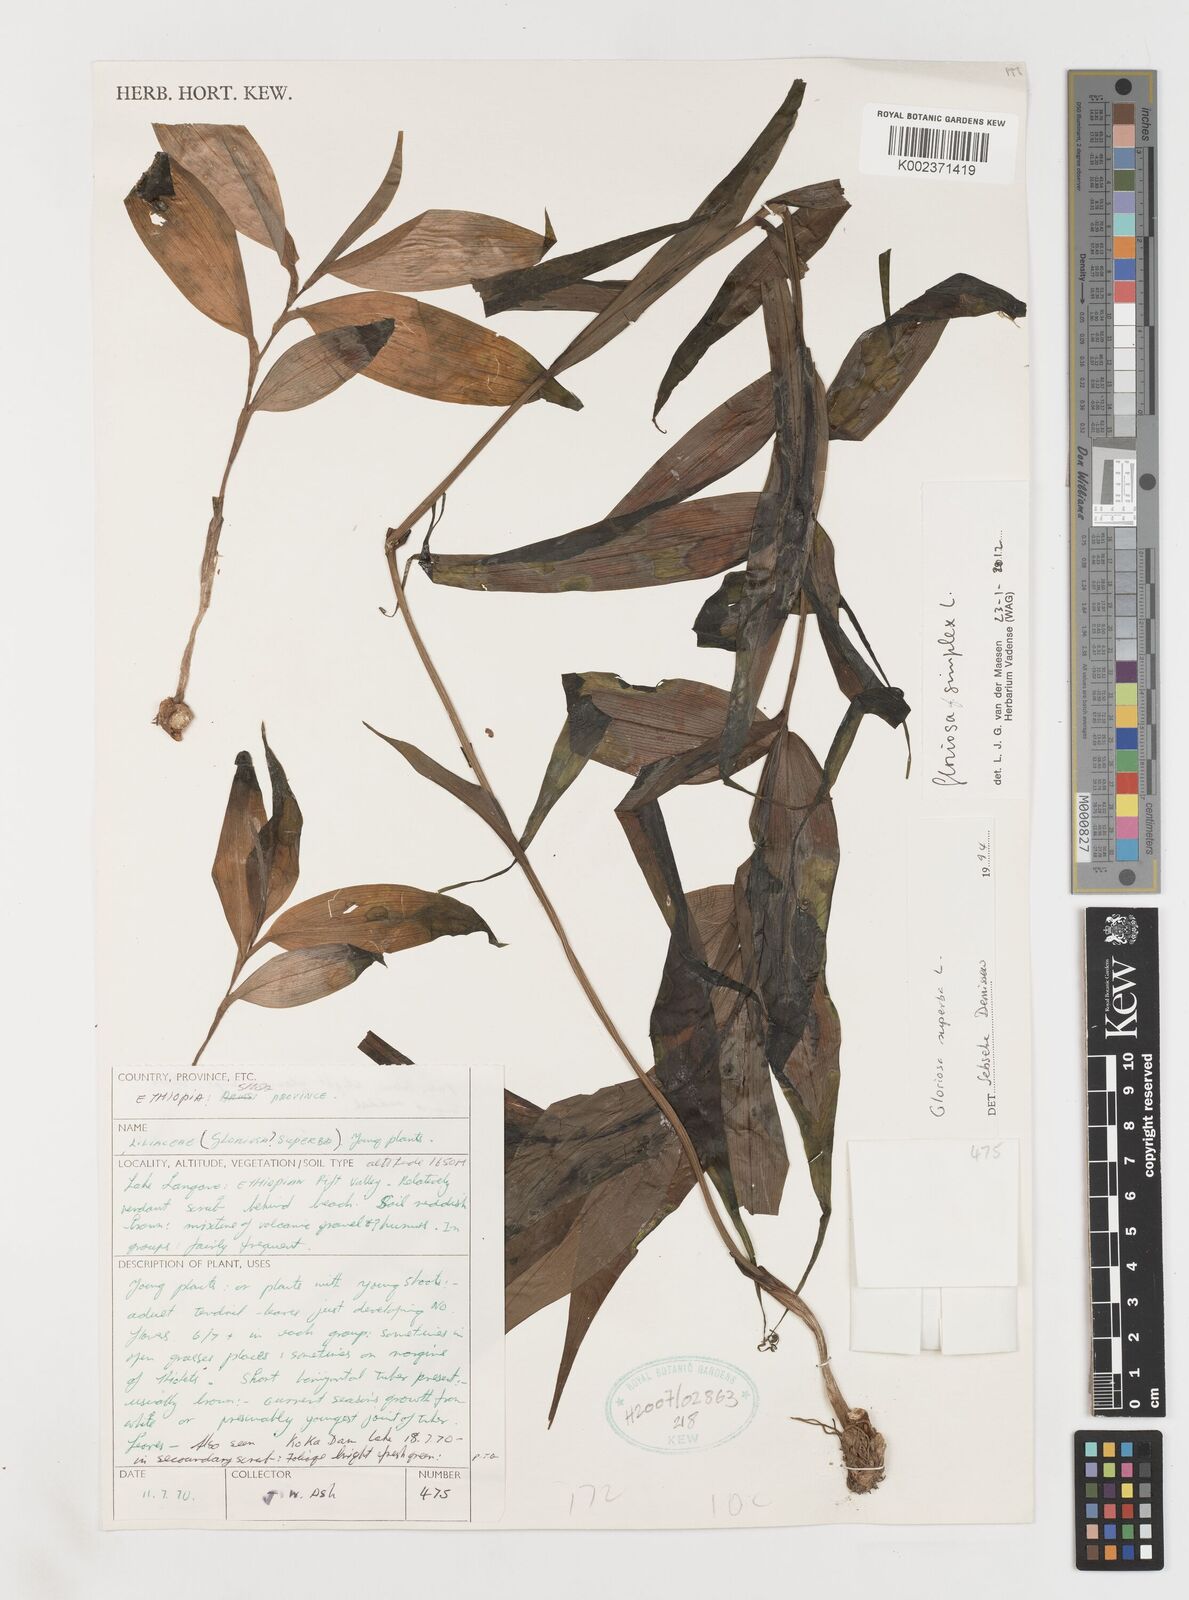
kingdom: Plantae
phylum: Tracheophyta
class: Liliopsida
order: Liliales
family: Colchicaceae
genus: Gloriosa
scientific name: Gloriosa simplex
